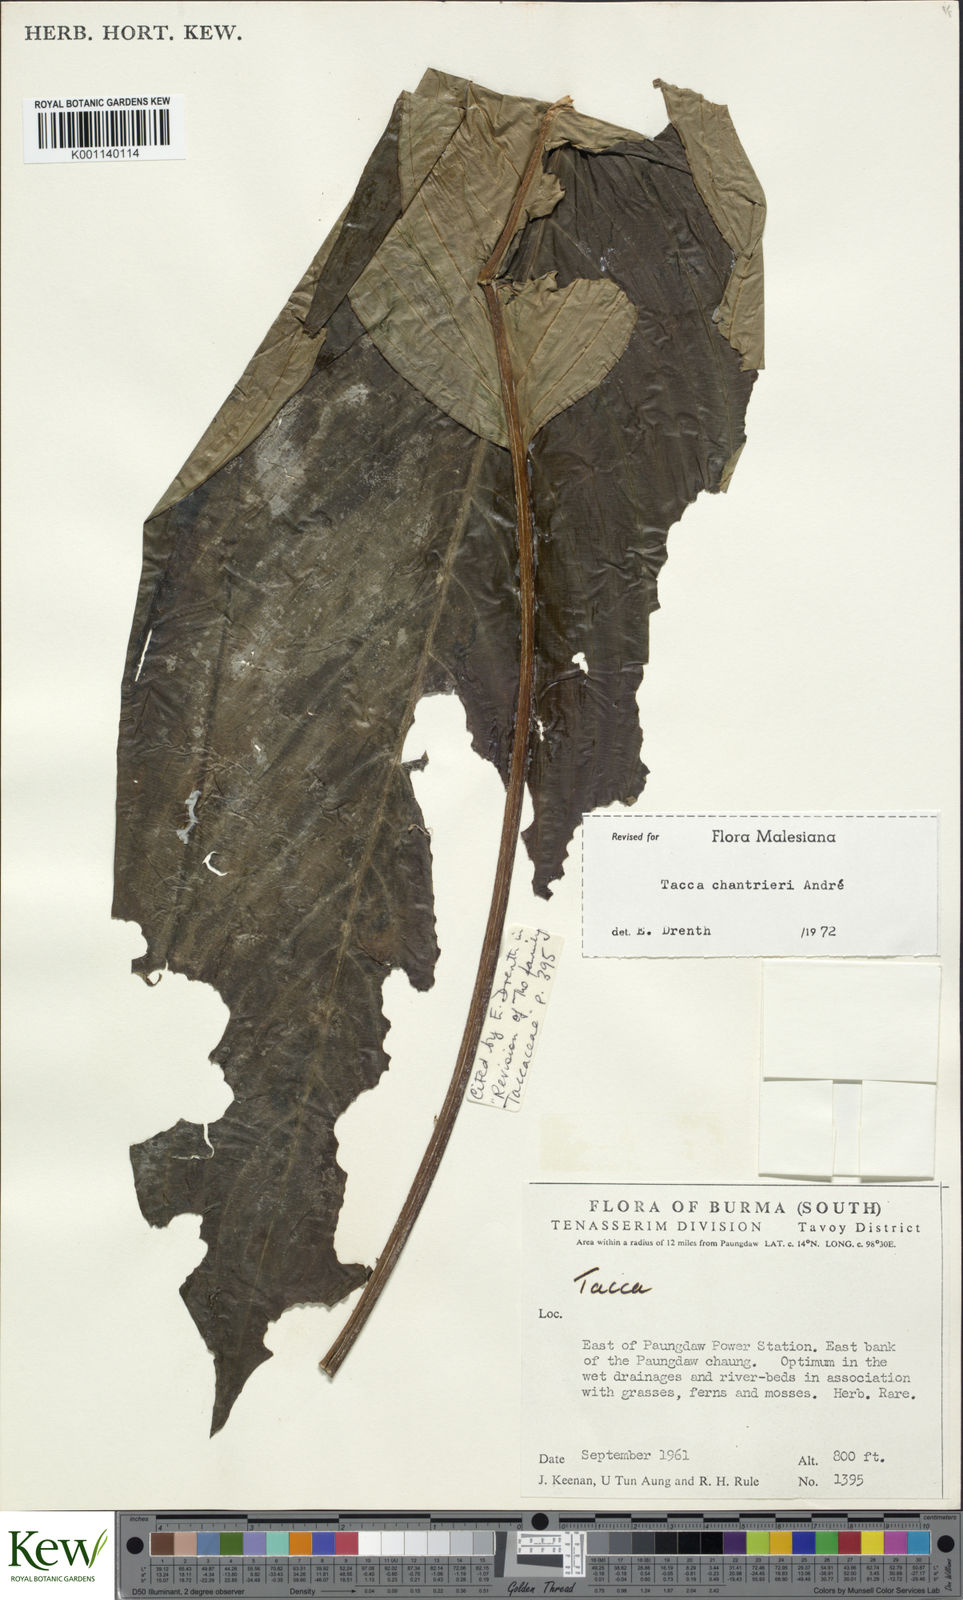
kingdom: Plantae
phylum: Tracheophyta
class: Liliopsida
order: Dioscoreales
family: Dioscoreaceae
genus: Tacca
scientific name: Tacca
